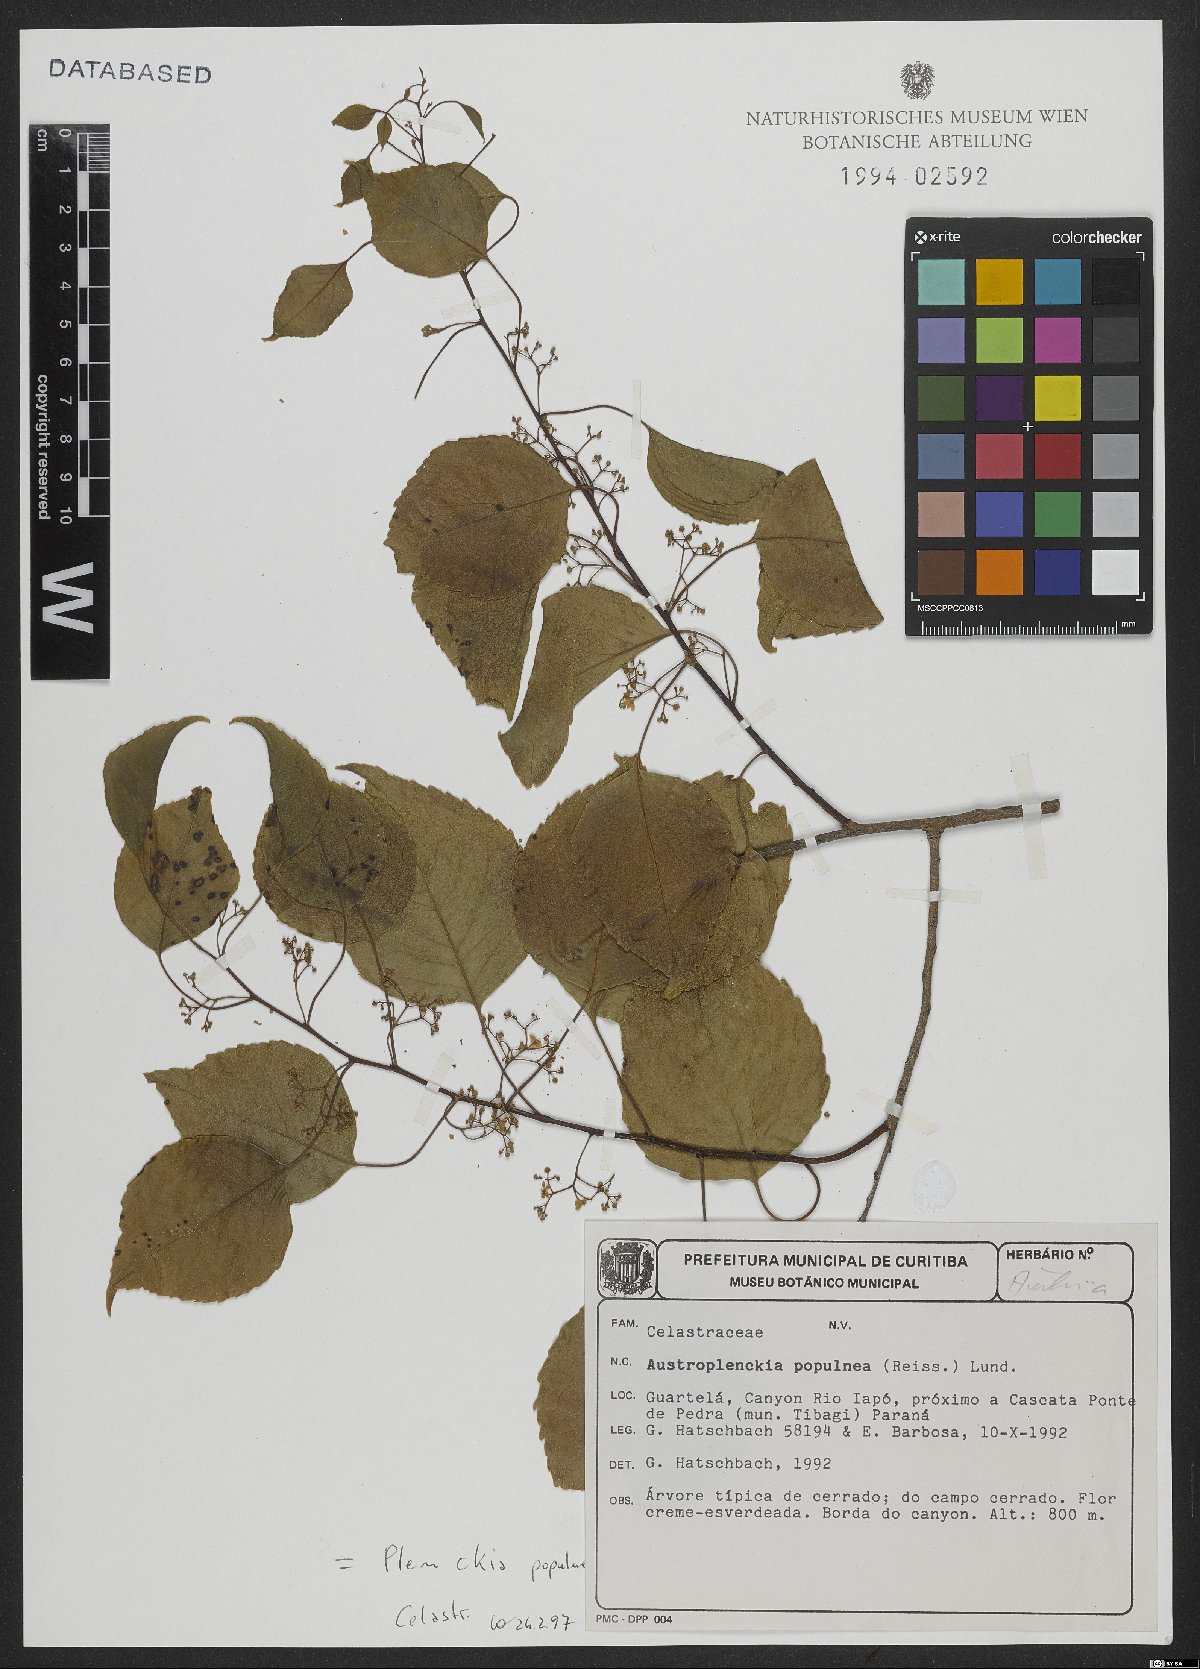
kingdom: Plantae
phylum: Tracheophyta
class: Magnoliopsida
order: Celastrales
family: Celastraceae
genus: Plenckia
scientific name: Plenckia populnea
